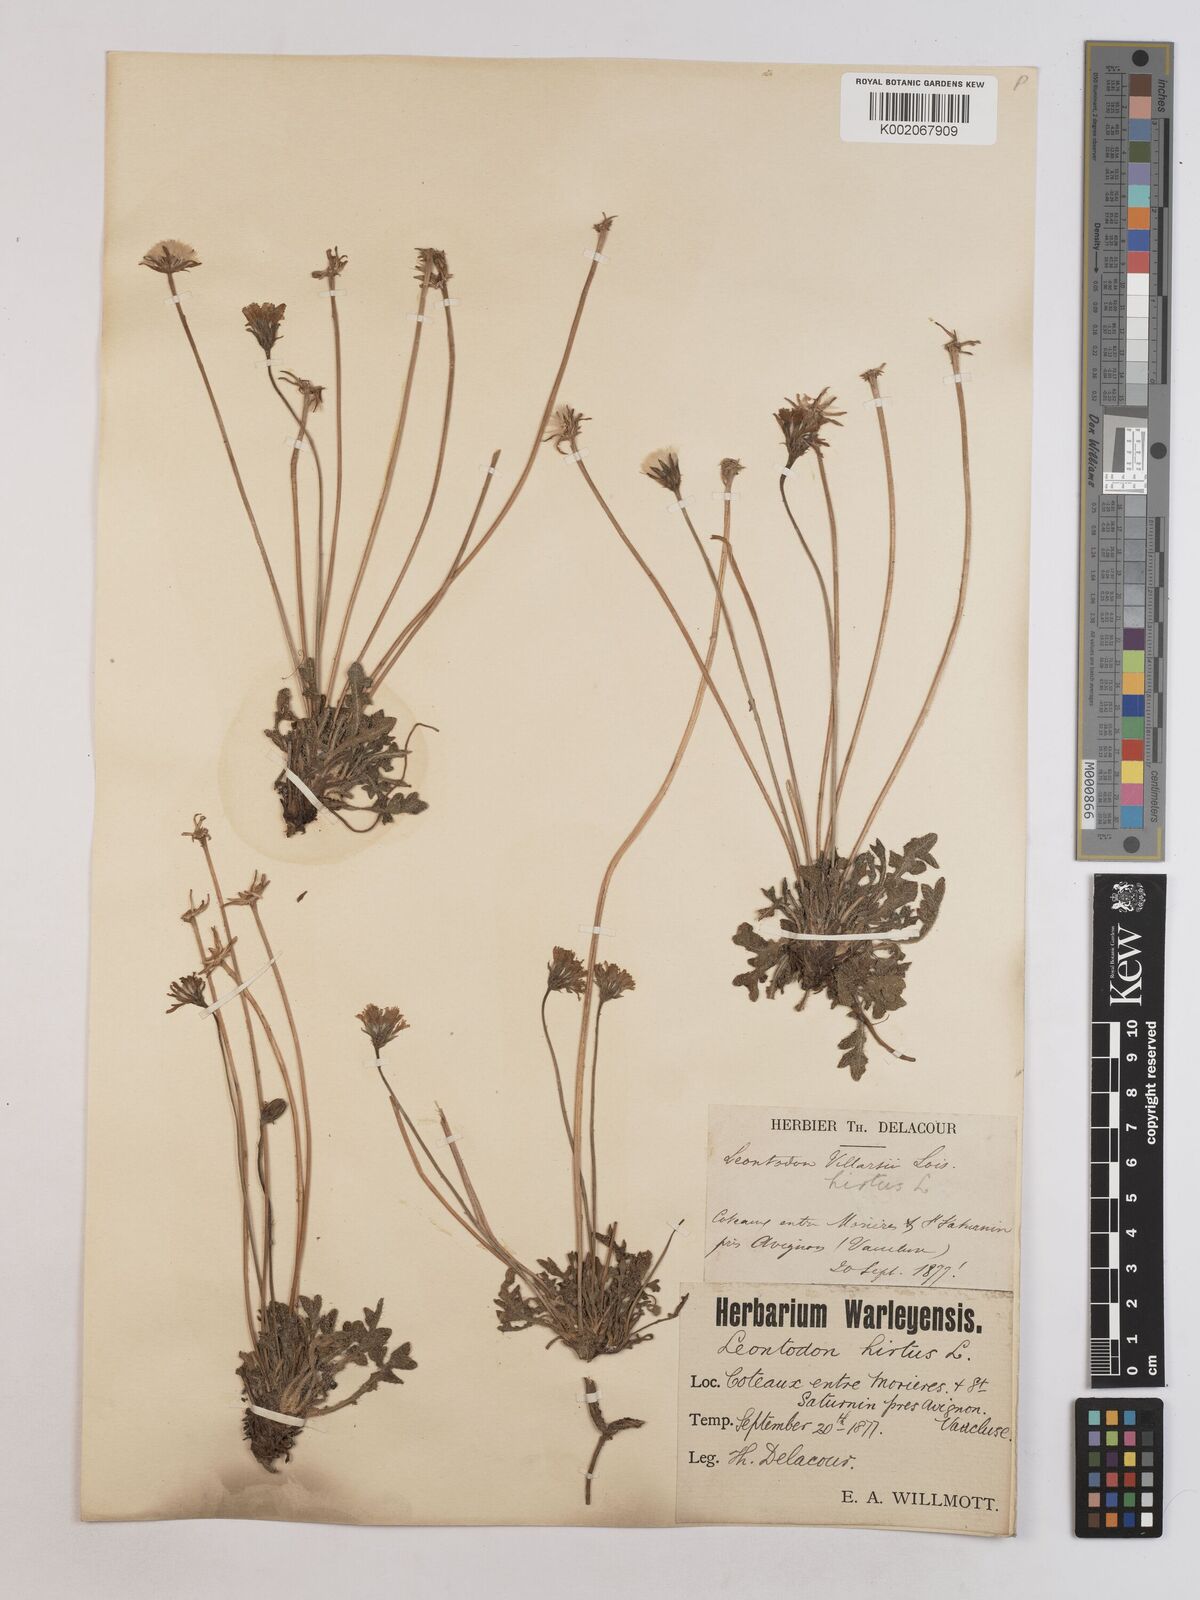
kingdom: Plantae
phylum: Tracheophyta
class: Magnoliopsida
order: Asterales
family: Asteraceae
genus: Leontodon
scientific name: Leontodon hirtus
